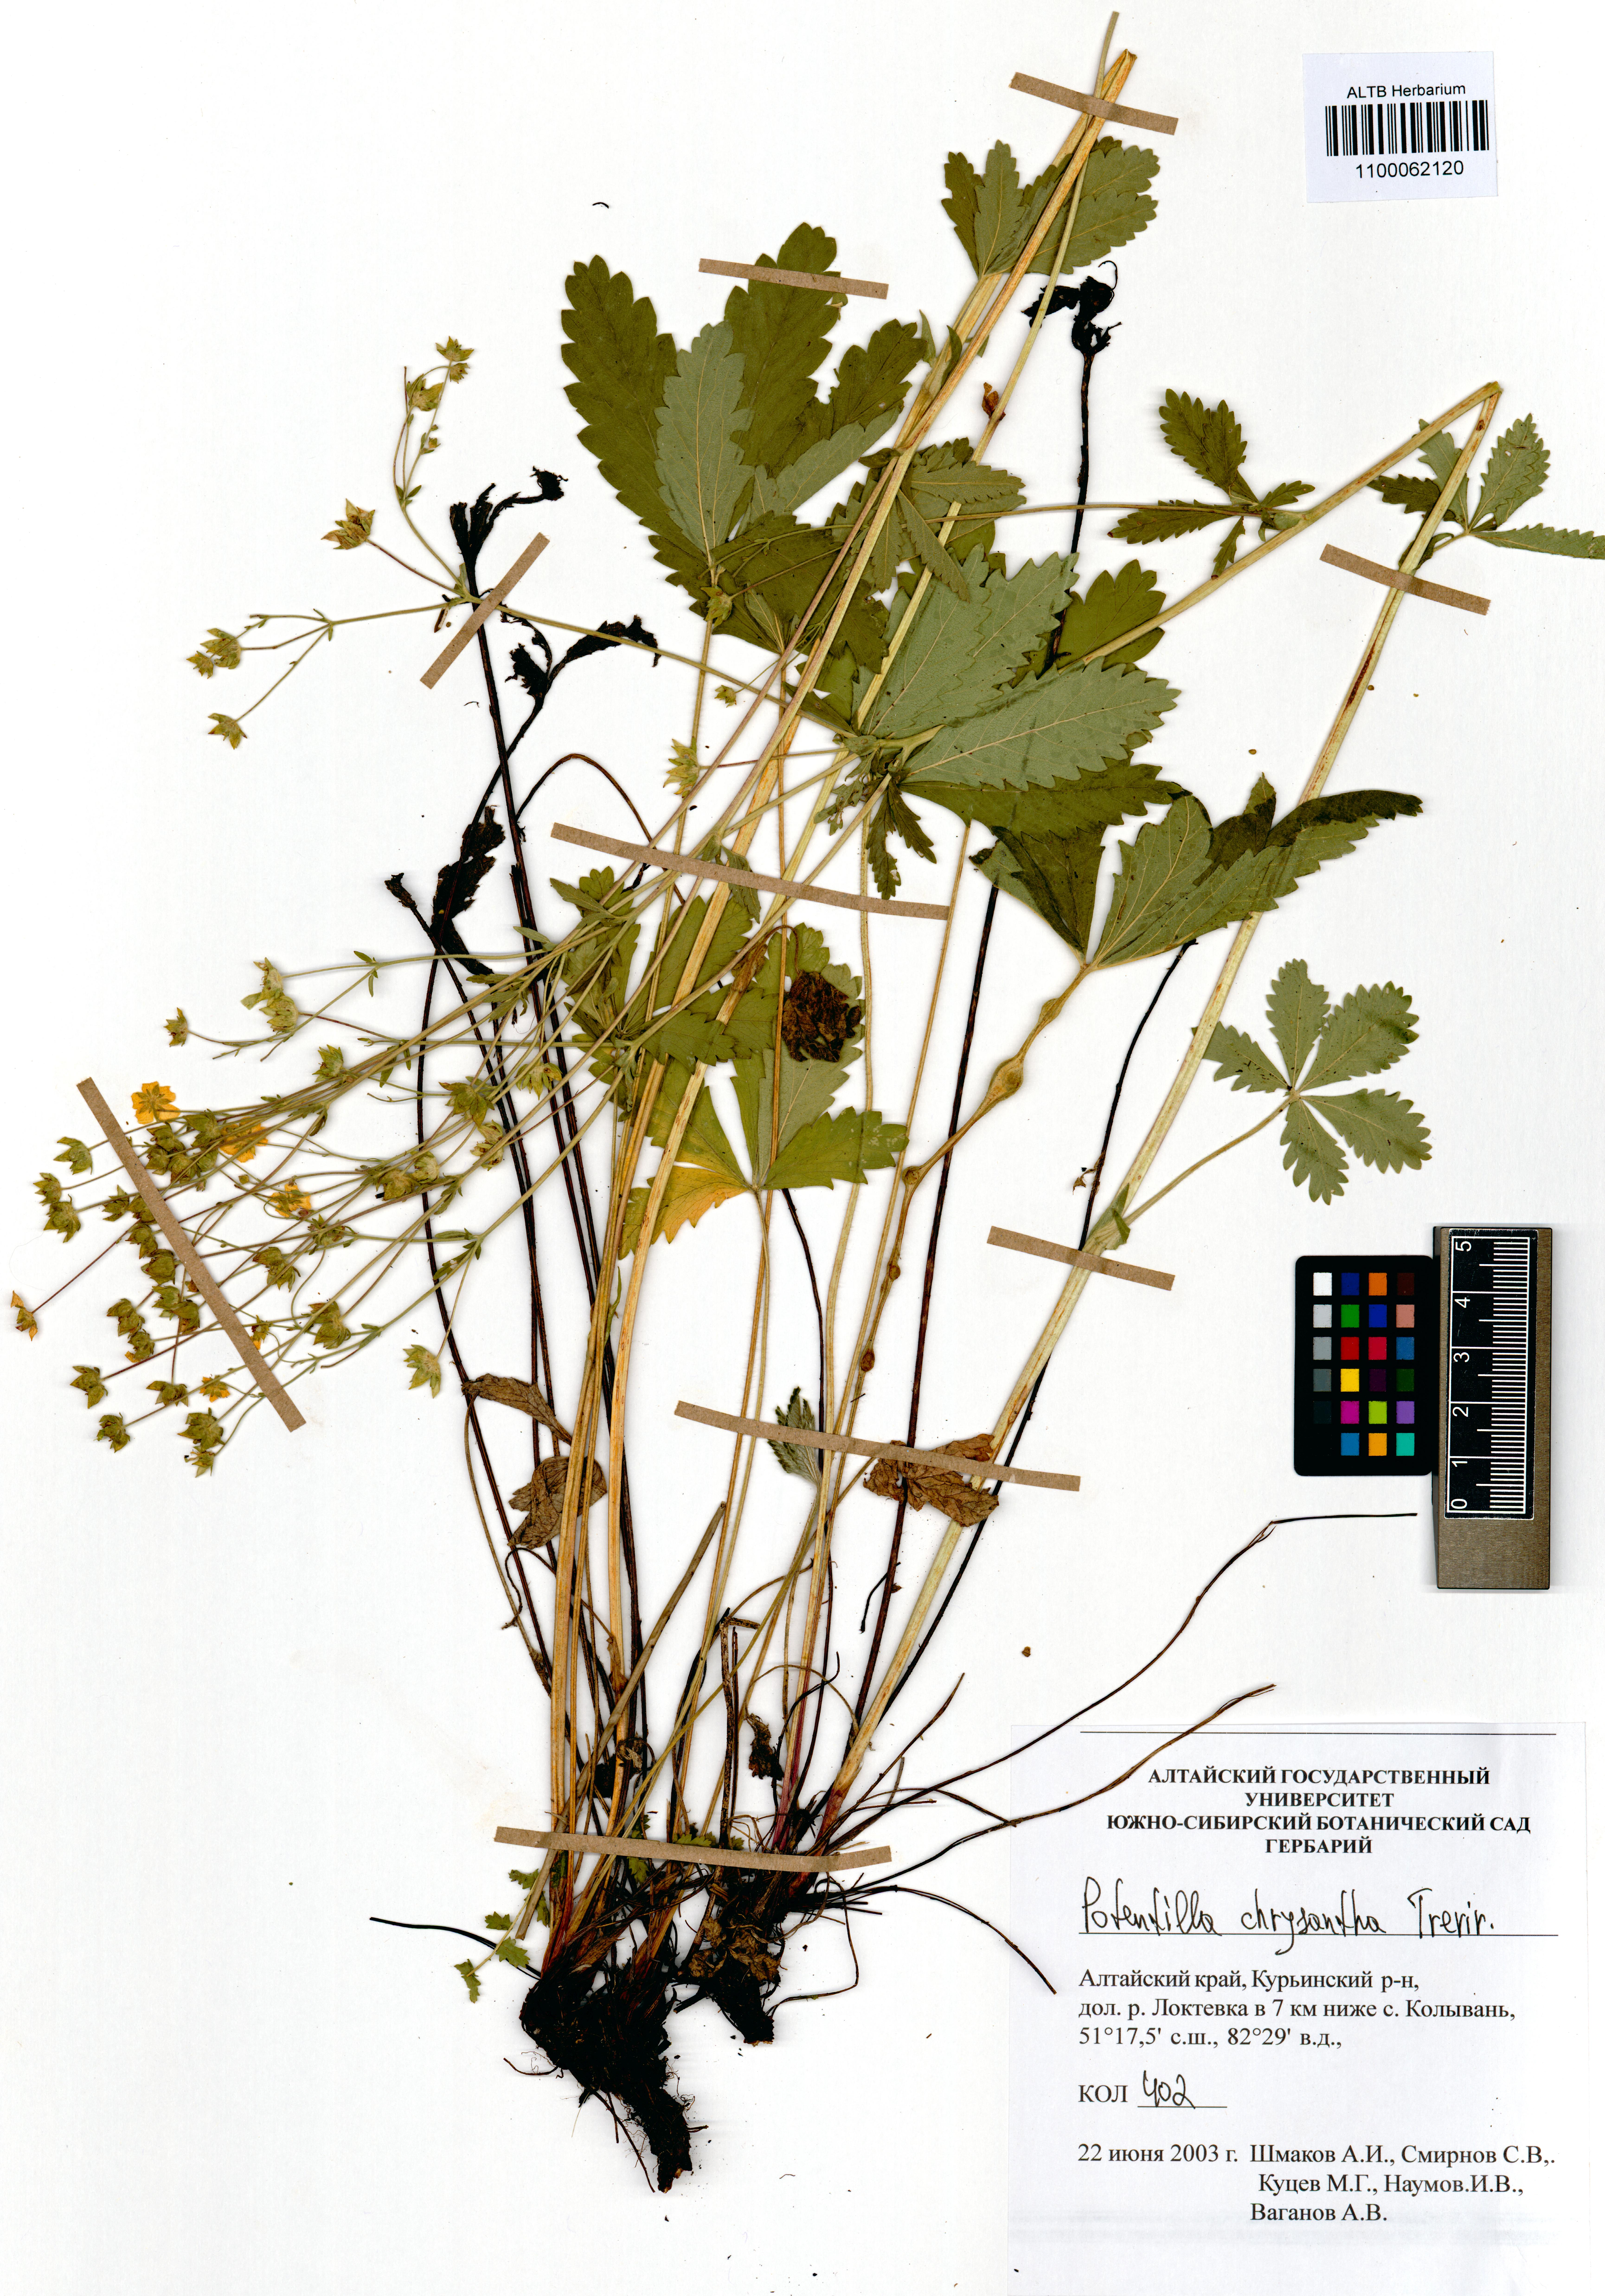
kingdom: Plantae
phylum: Tracheophyta
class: Magnoliopsida
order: Rosales
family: Rosaceae
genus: Potentilla
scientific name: Potentilla chrysantha
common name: Thuringian cinquefoil
